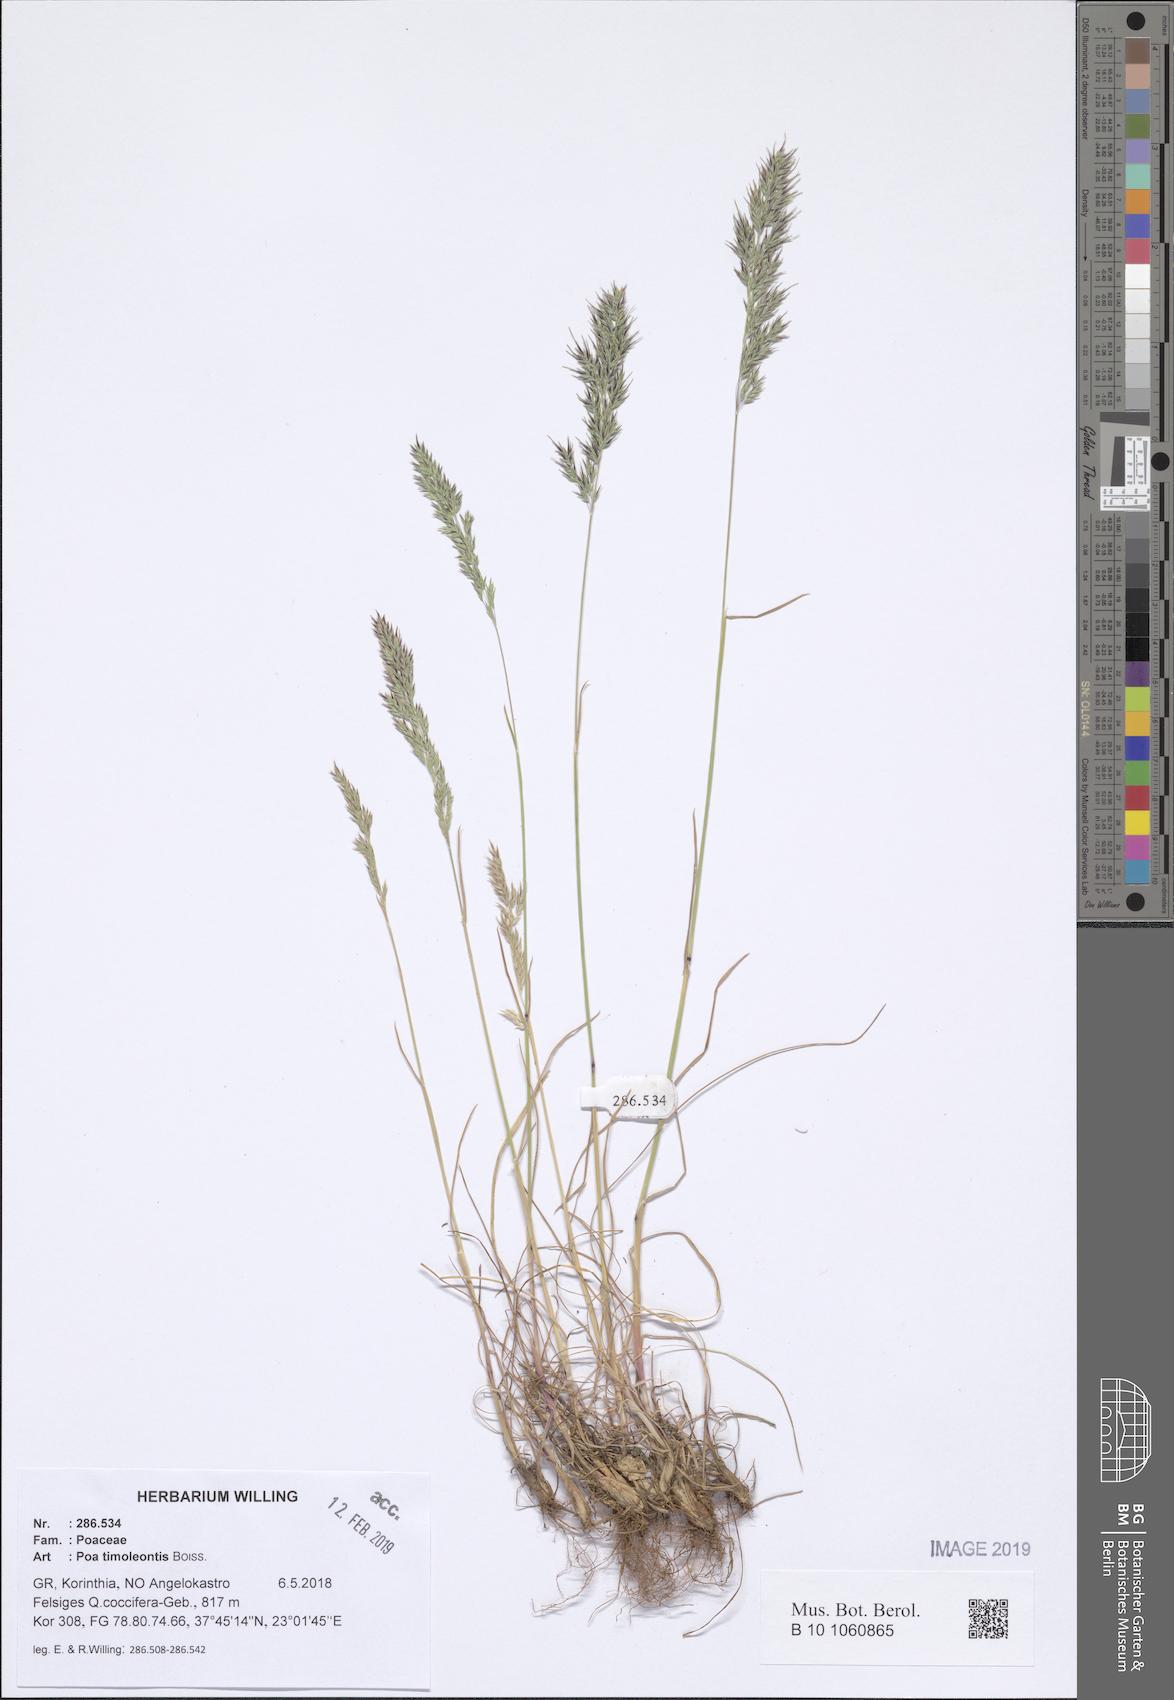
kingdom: Plantae
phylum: Tracheophyta
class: Liliopsida
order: Poales
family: Poaceae
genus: Poa
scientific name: Poa timoleontis
